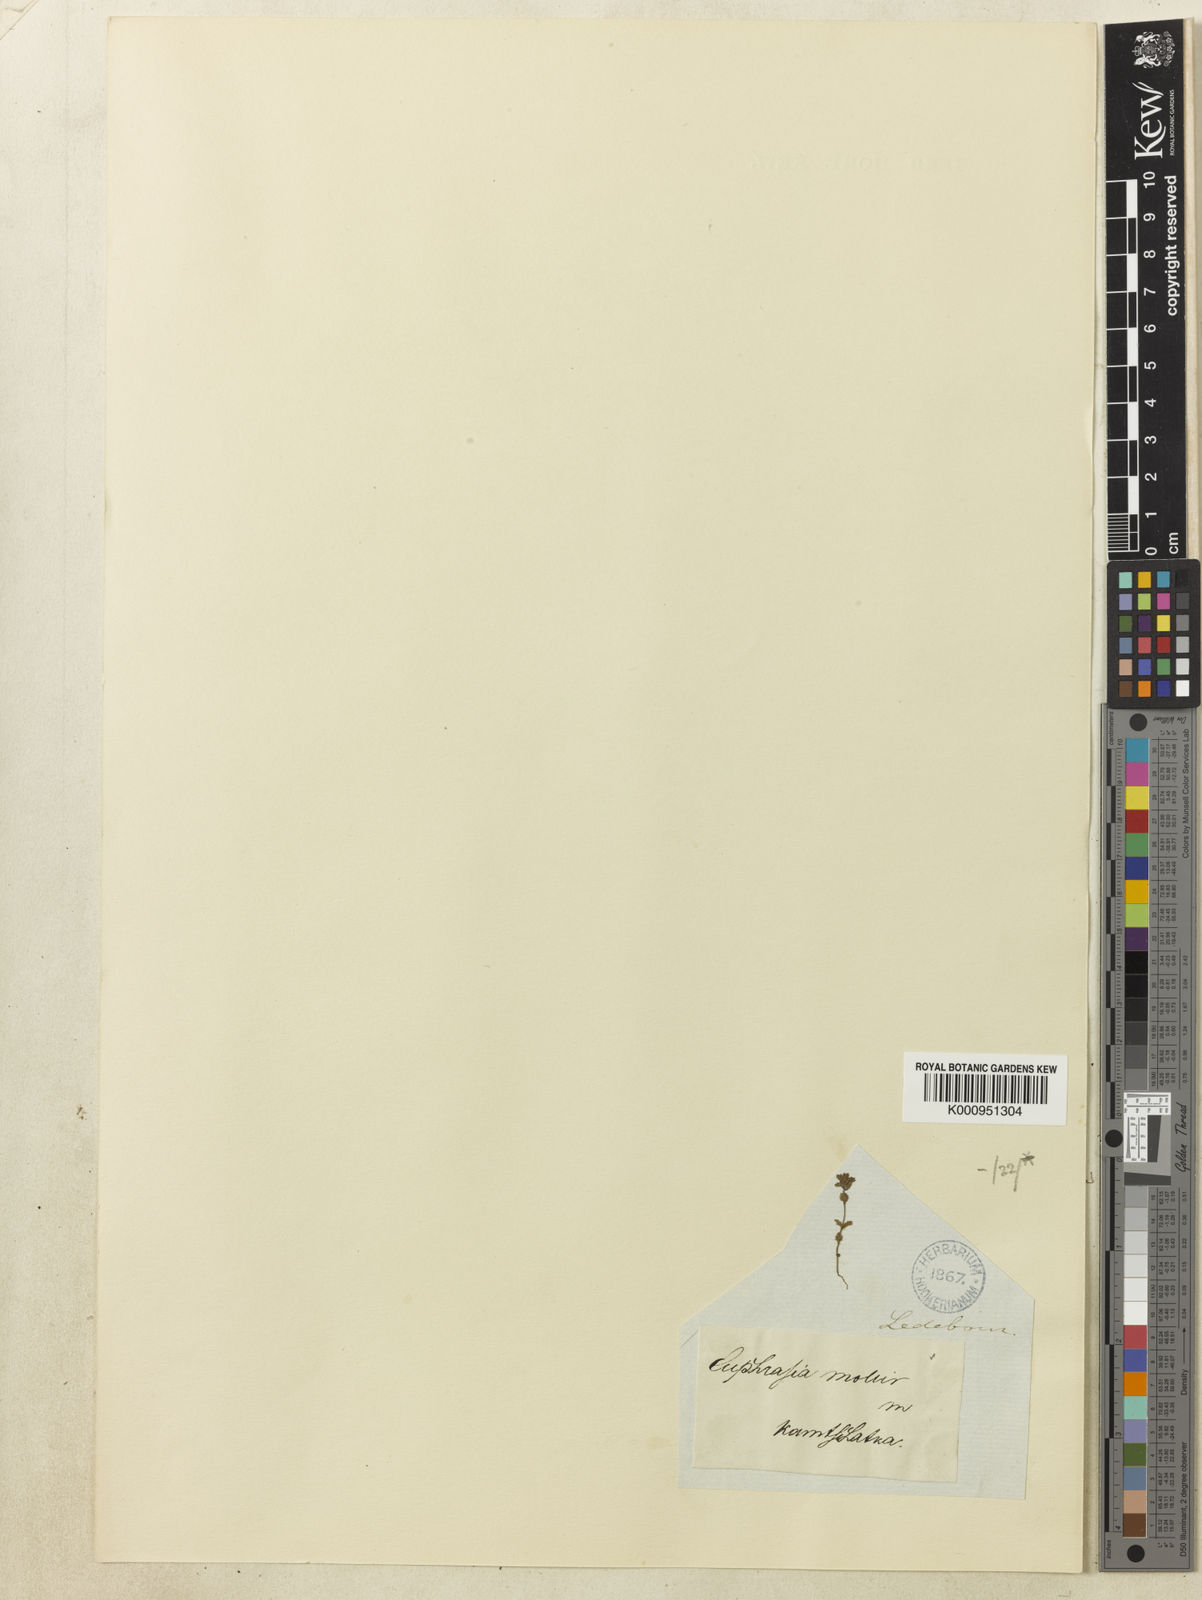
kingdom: Plantae
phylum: Tracheophyta
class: Magnoliopsida
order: Lamiales
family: Orobanchaceae
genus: Euphrasia
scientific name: Euphrasia
